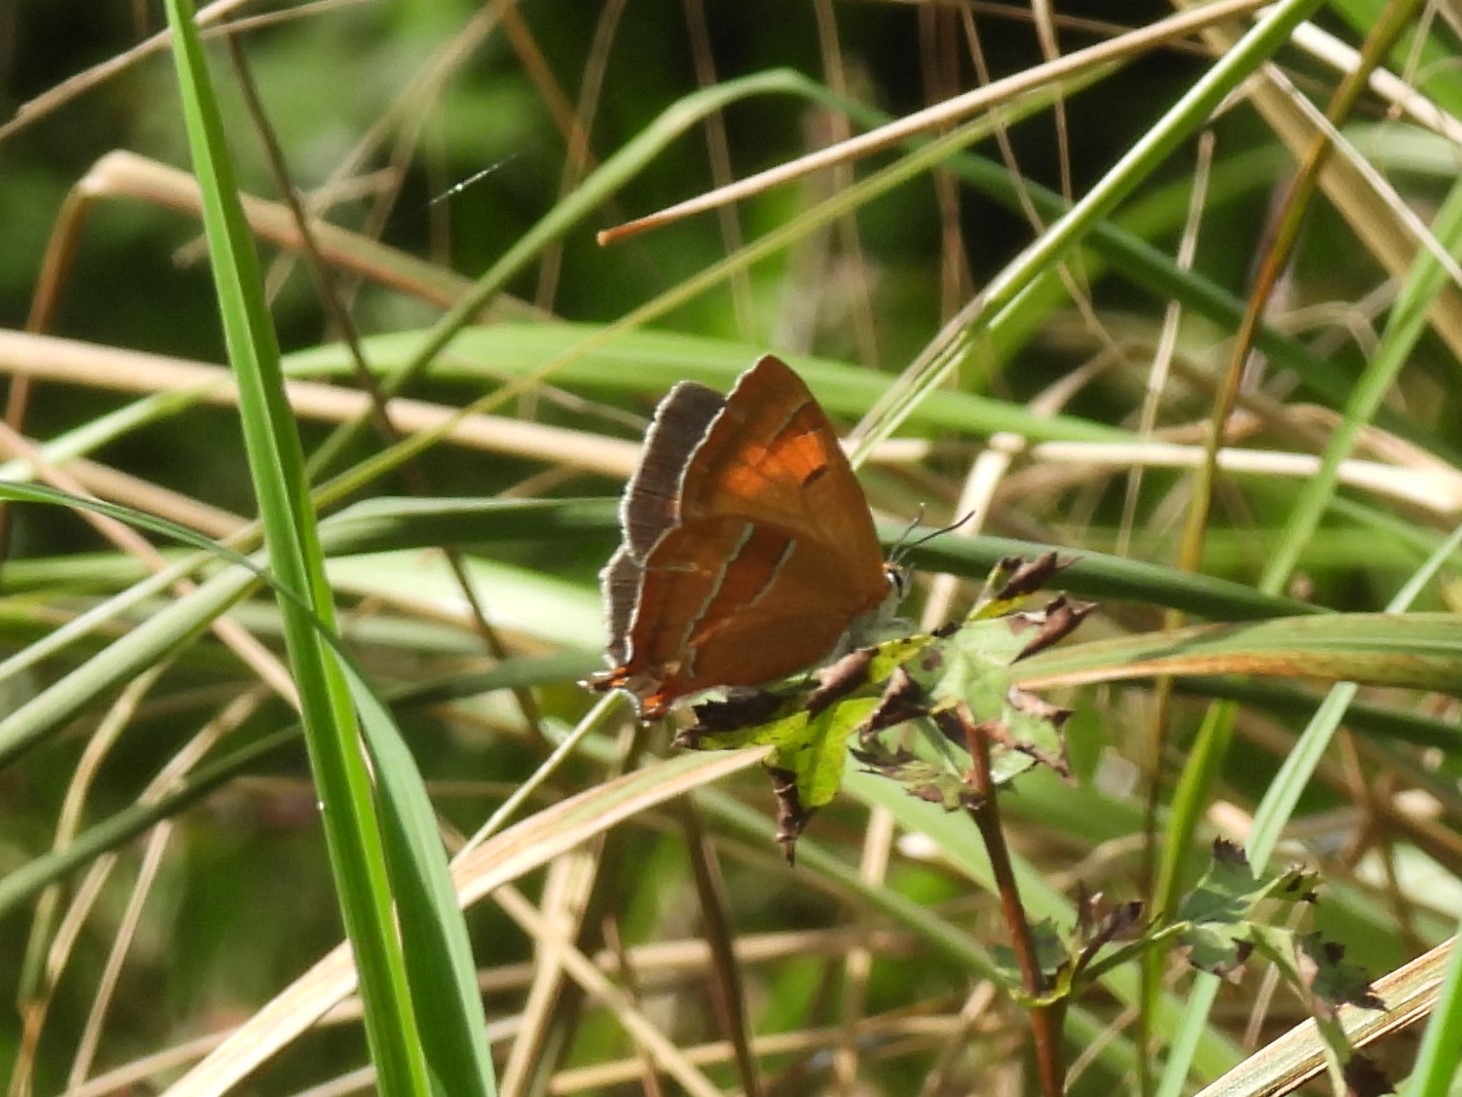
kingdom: Animalia
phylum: Arthropoda
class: Insecta
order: Lepidoptera
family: Lycaenidae
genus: Thecla
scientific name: Thecla betulae
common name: Guldhale
